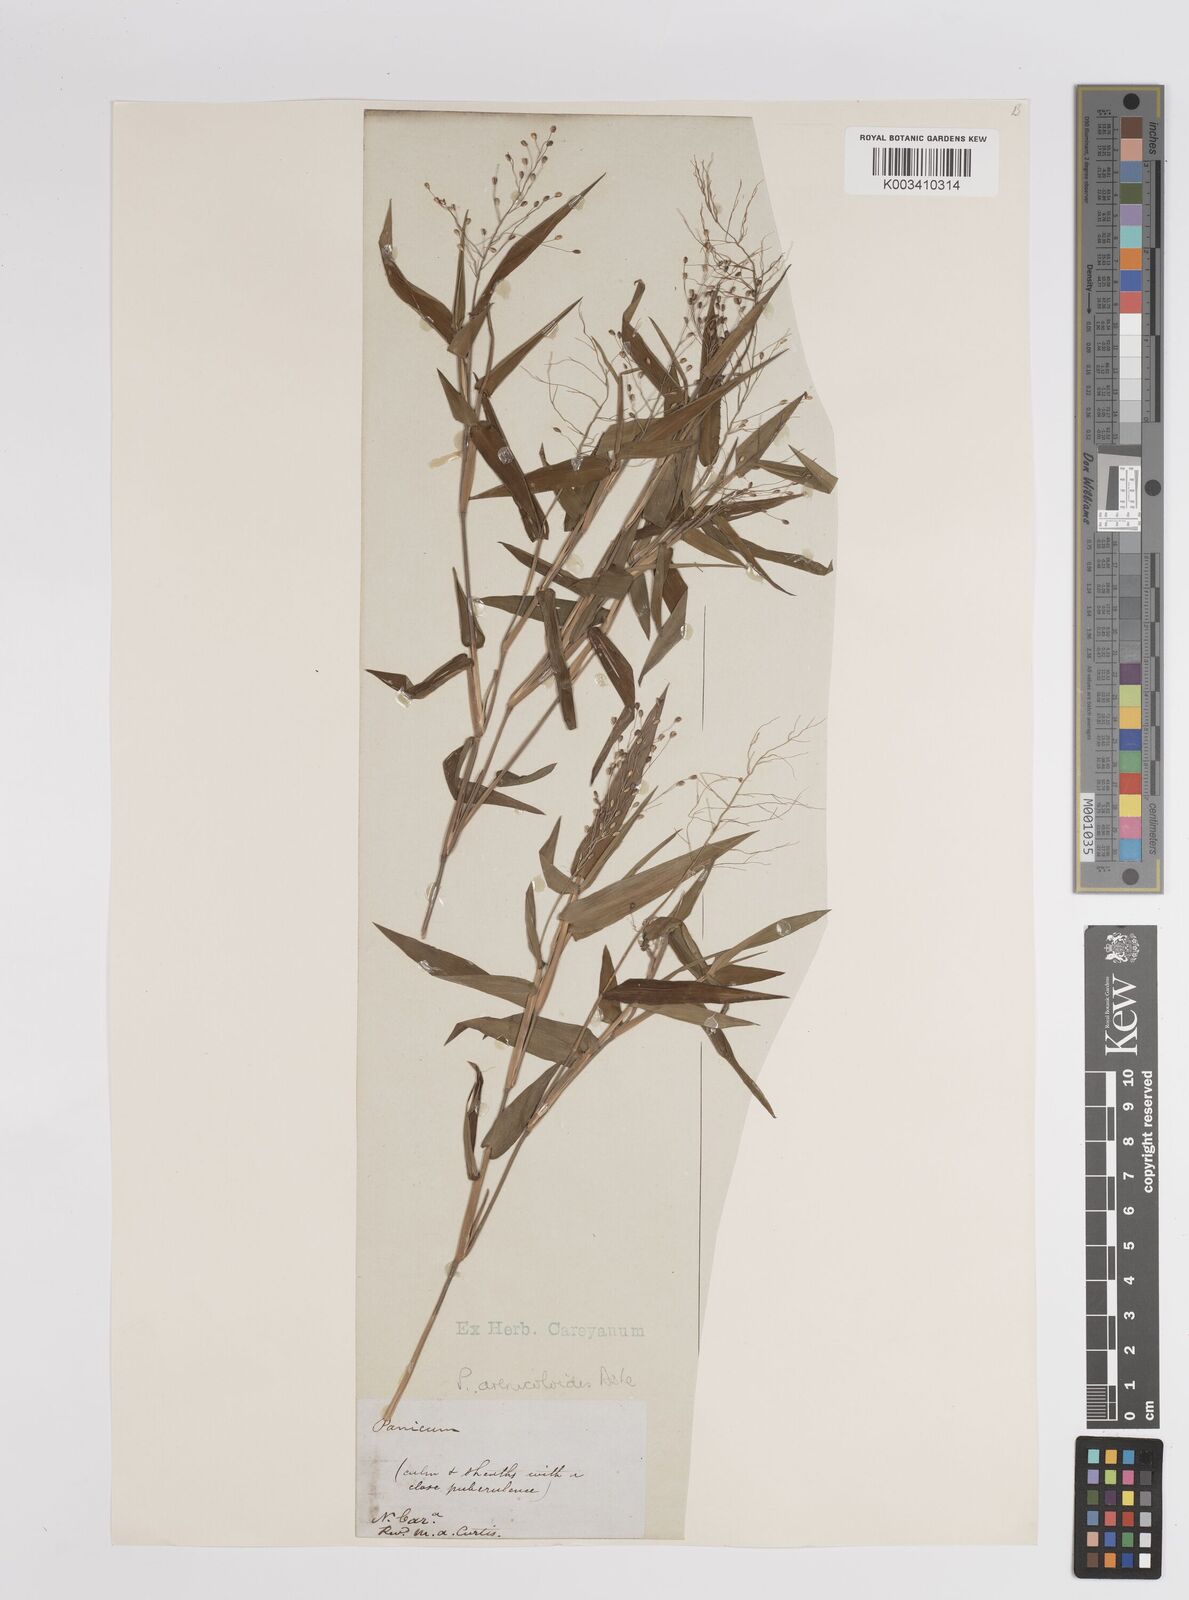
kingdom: Plantae
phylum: Tracheophyta
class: Liliopsida
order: Poales
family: Poaceae
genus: Dichanthelium
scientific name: Dichanthelium aciculare
